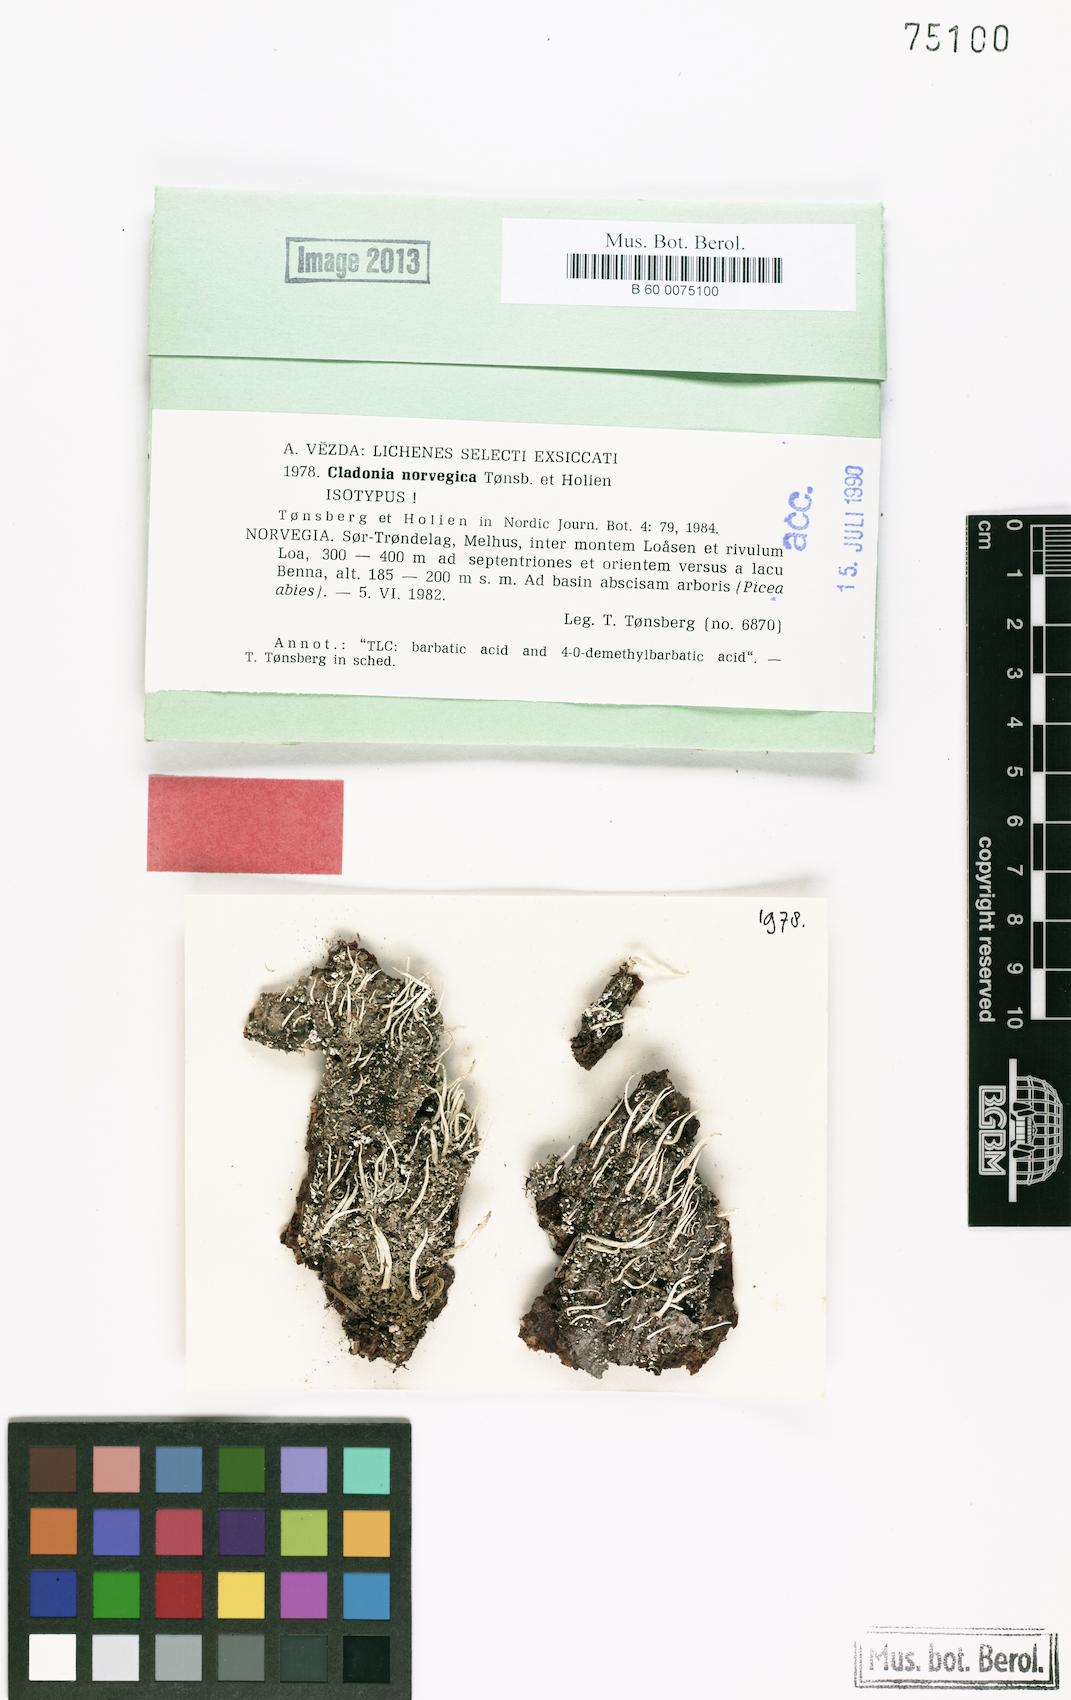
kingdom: Fungi
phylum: Ascomycota
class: Lecanoromycetes
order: Lecanorales
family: Cladoniaceae
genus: Cladonia
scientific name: Cladonia norvegica
